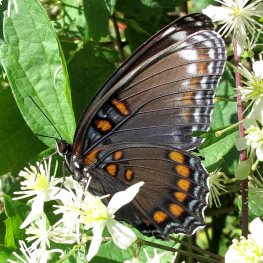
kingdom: Animalia
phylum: Arthropoda
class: Insecta
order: Lepidoptera
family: Nymphalidae
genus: Limenitis
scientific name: Limenitis arthemis
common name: Red-spotted Admiral
